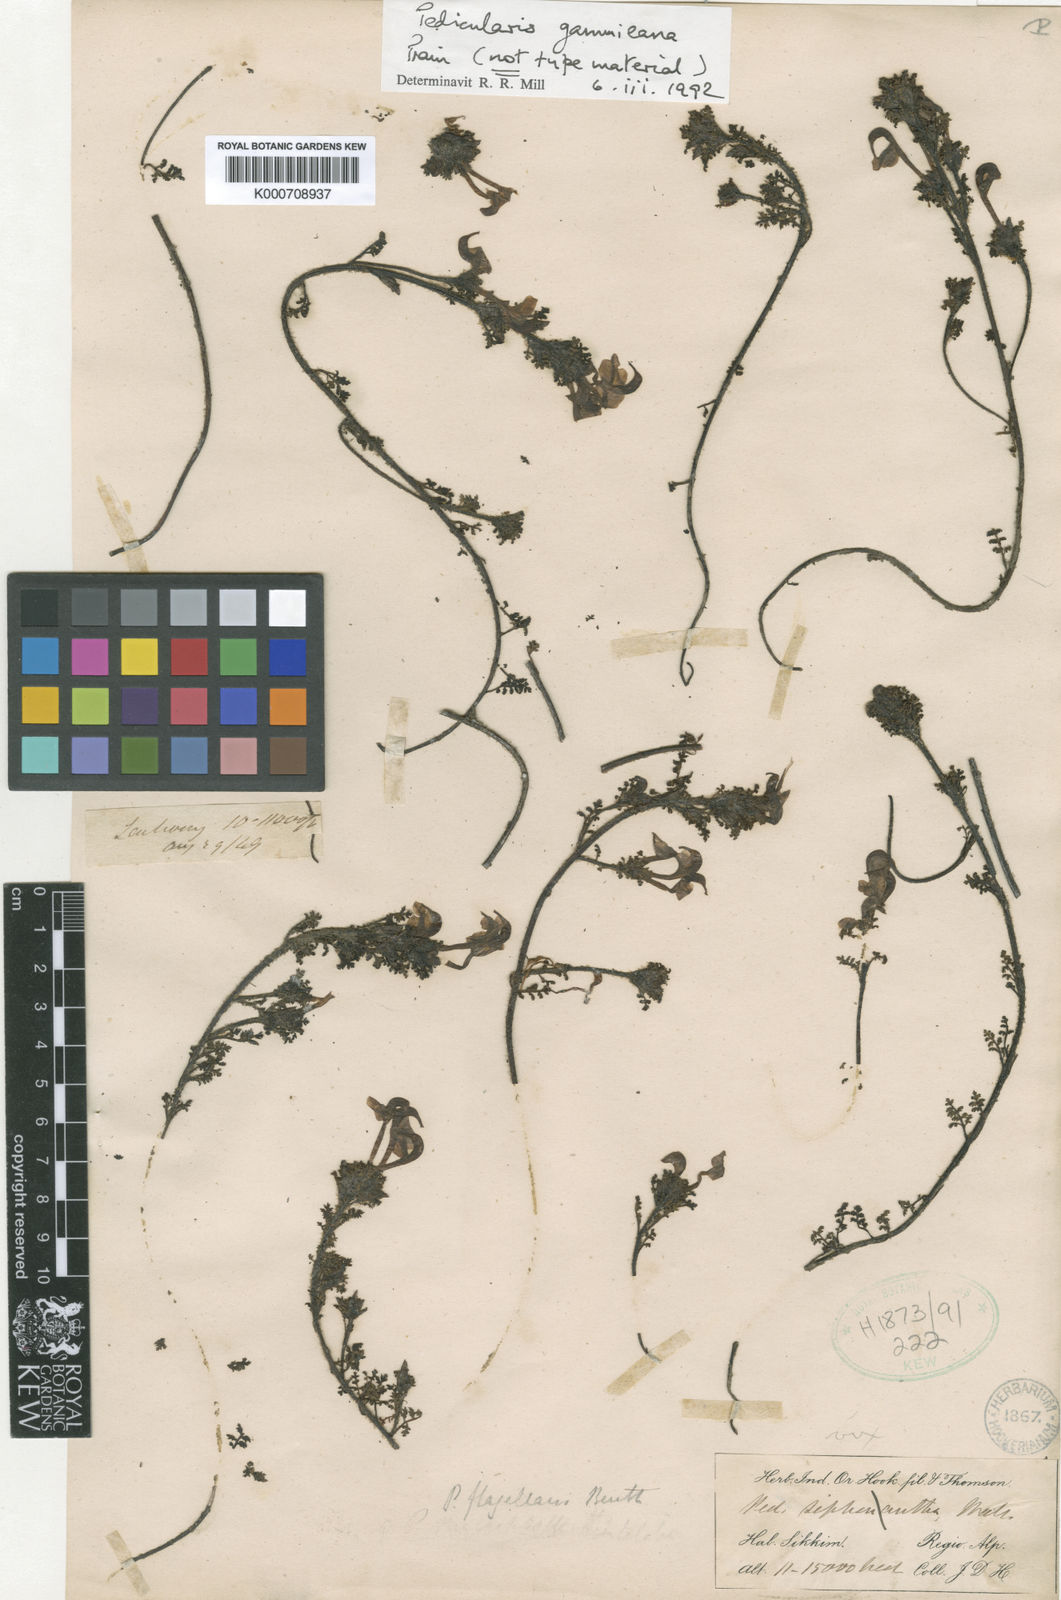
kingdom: Plantae
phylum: Tracheophyta
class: Magnoliopsida
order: Lamiales
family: Orobanchaceae
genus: Pedicularis
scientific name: Pedicularis gammieana
